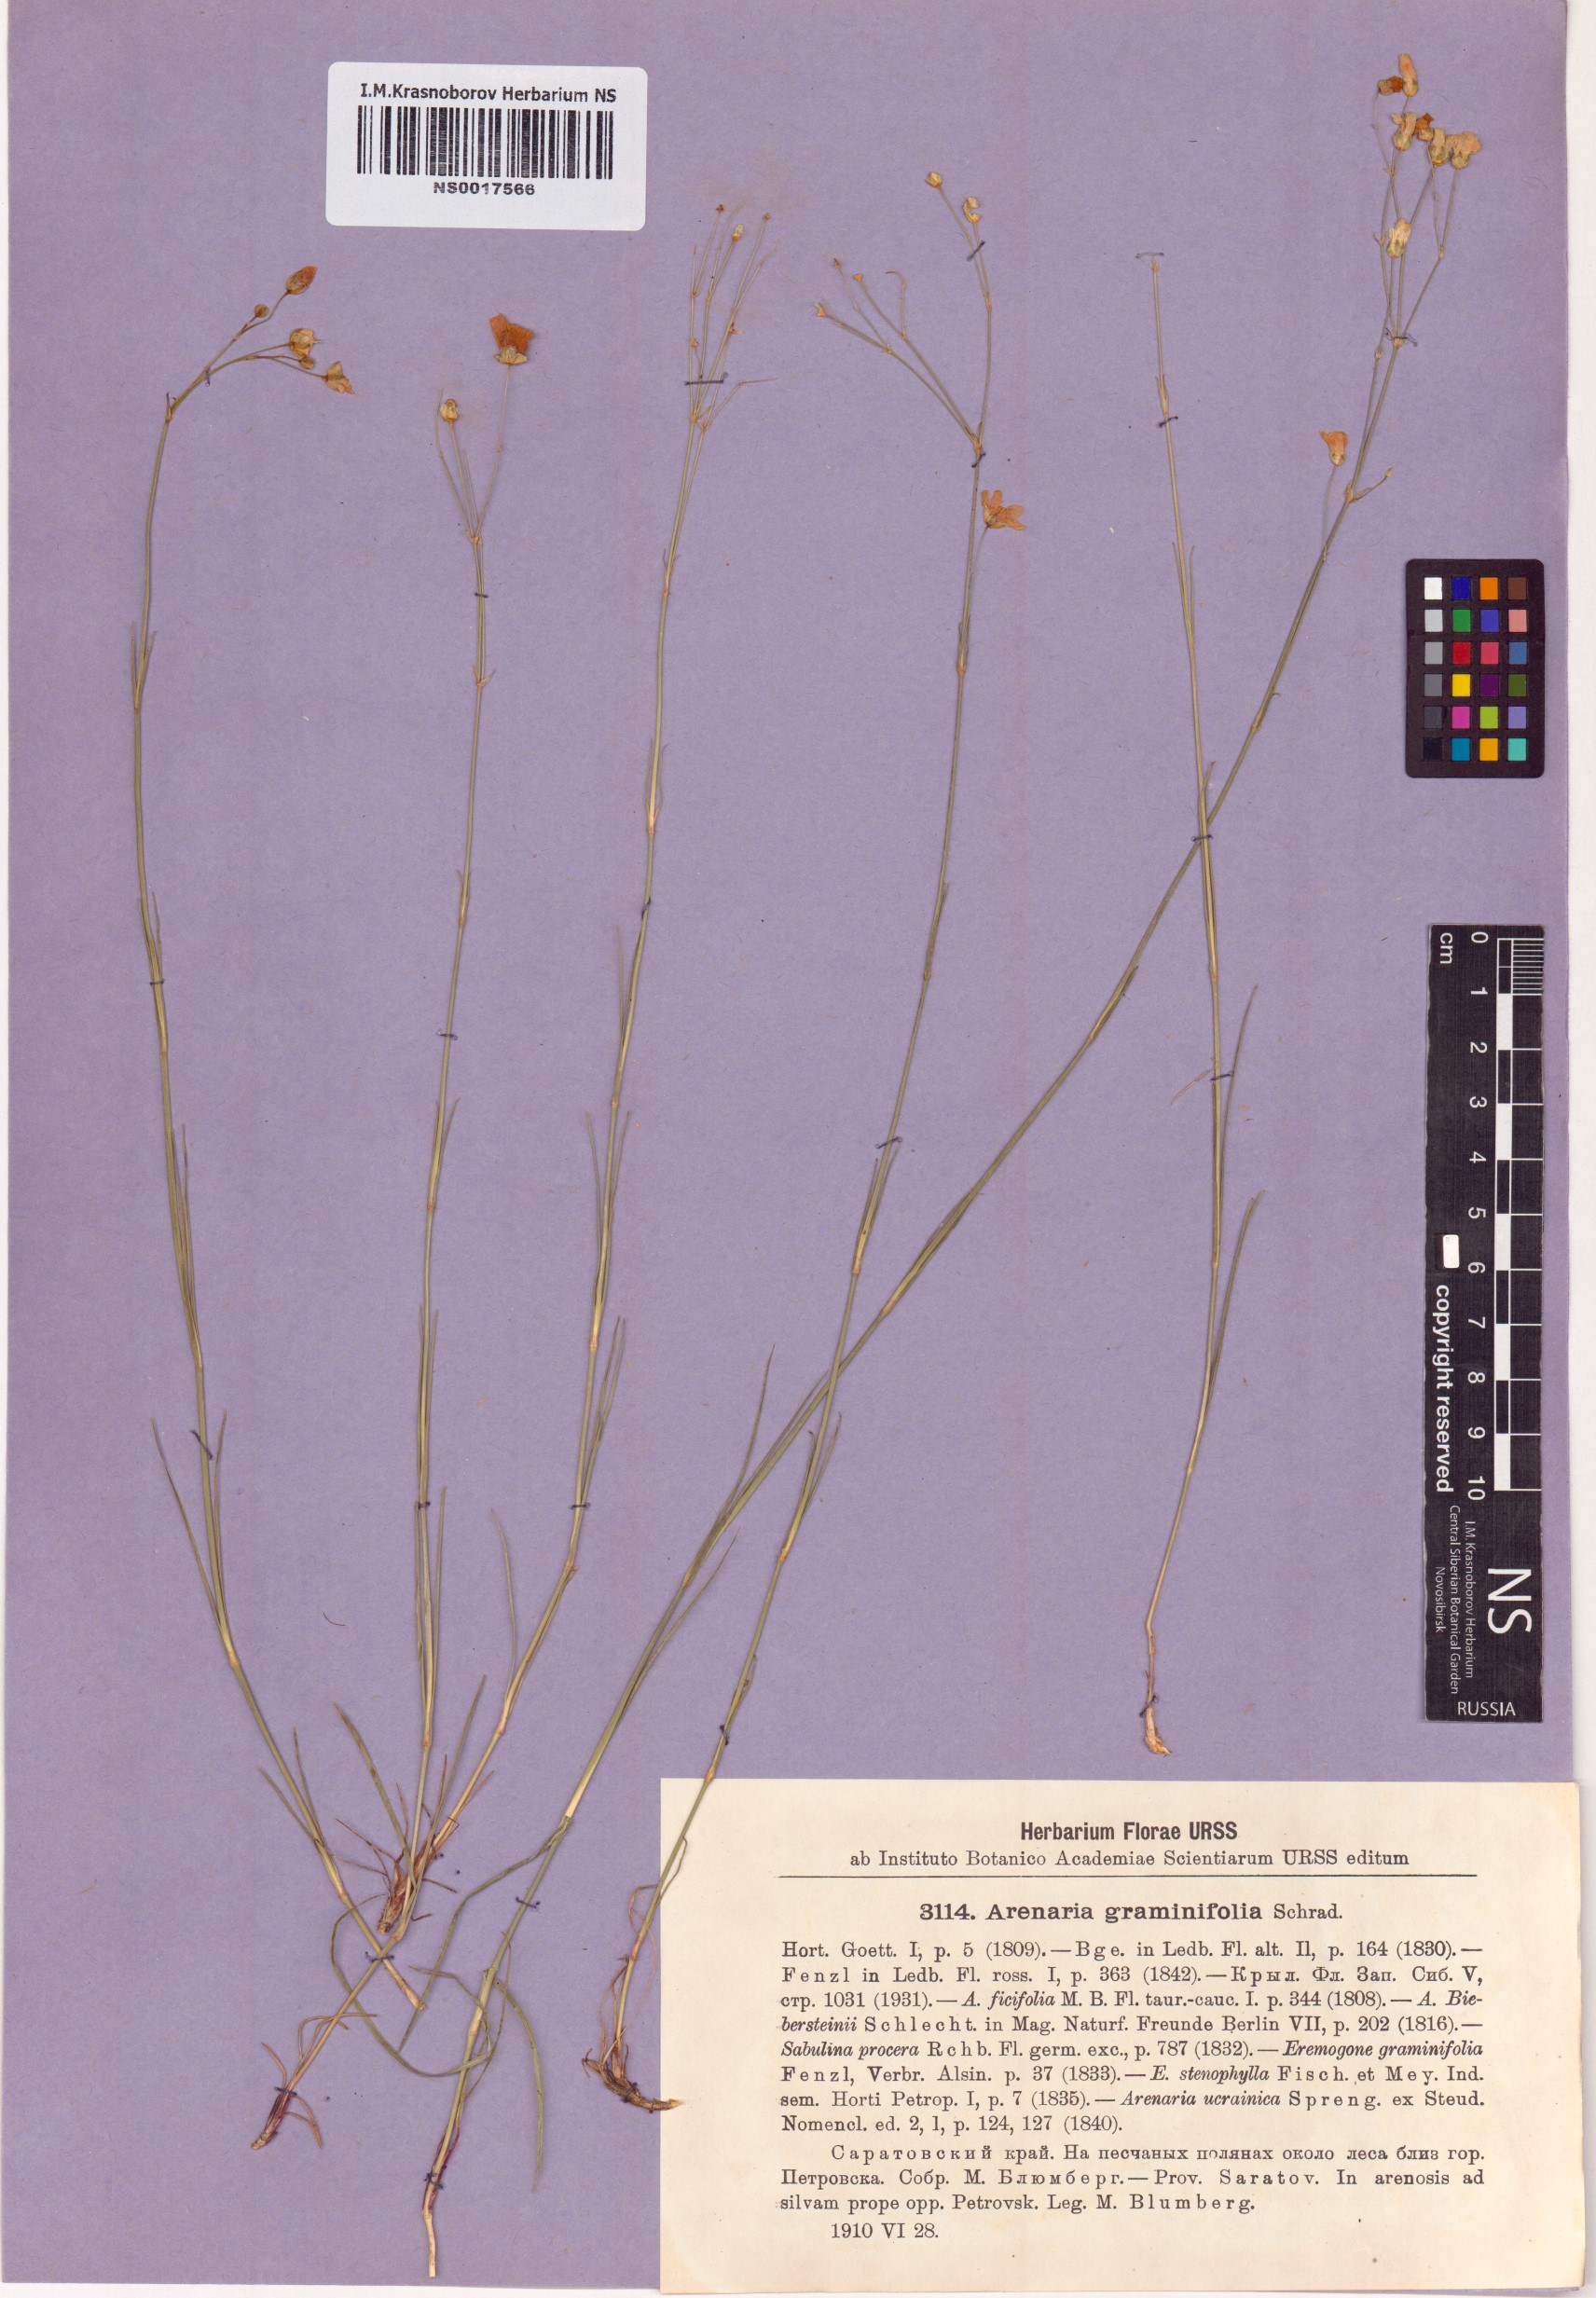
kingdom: Plantae
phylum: Tracheophyta
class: Magnoliopsida
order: Caryophyllales
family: Caryophyllaceae
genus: Eremogone
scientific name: Eremogone saxatilis
